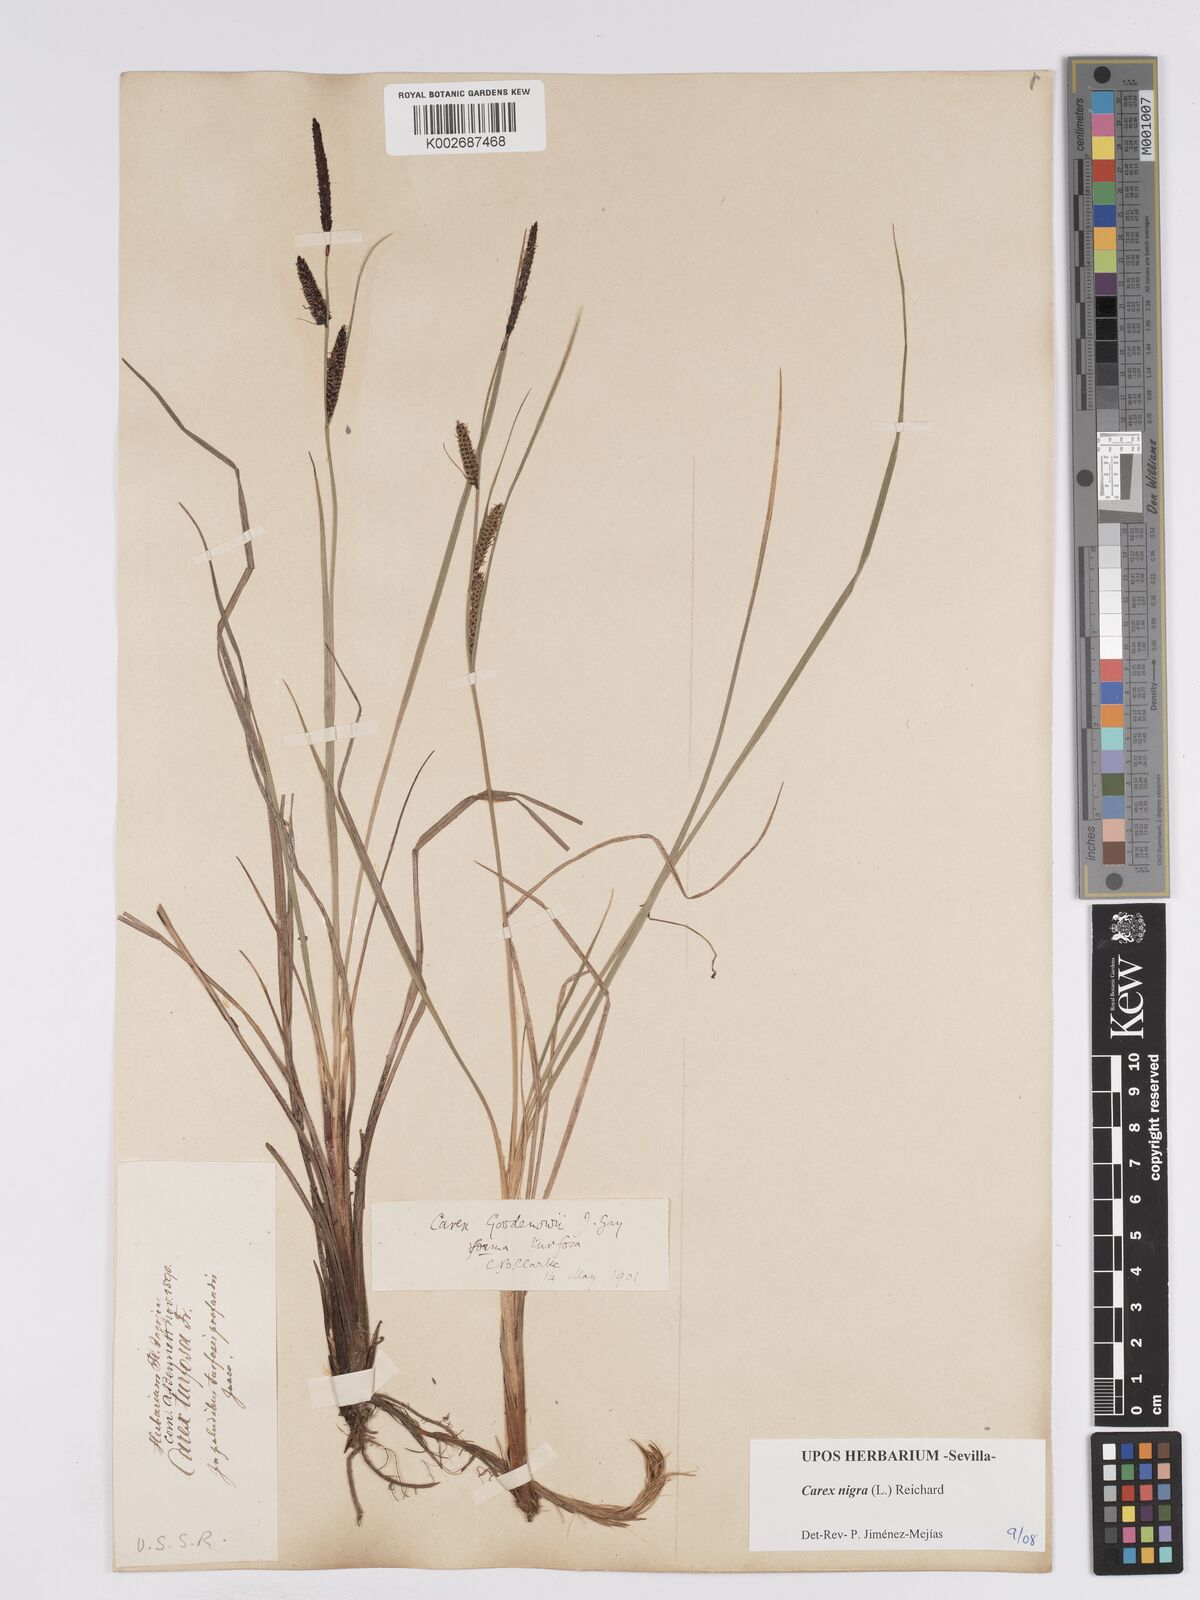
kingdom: Plantae
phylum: Tracheophyta
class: Liliopsida
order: Poales
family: Cyperaceae
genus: Carex
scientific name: Carex nigra
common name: Common sedge
